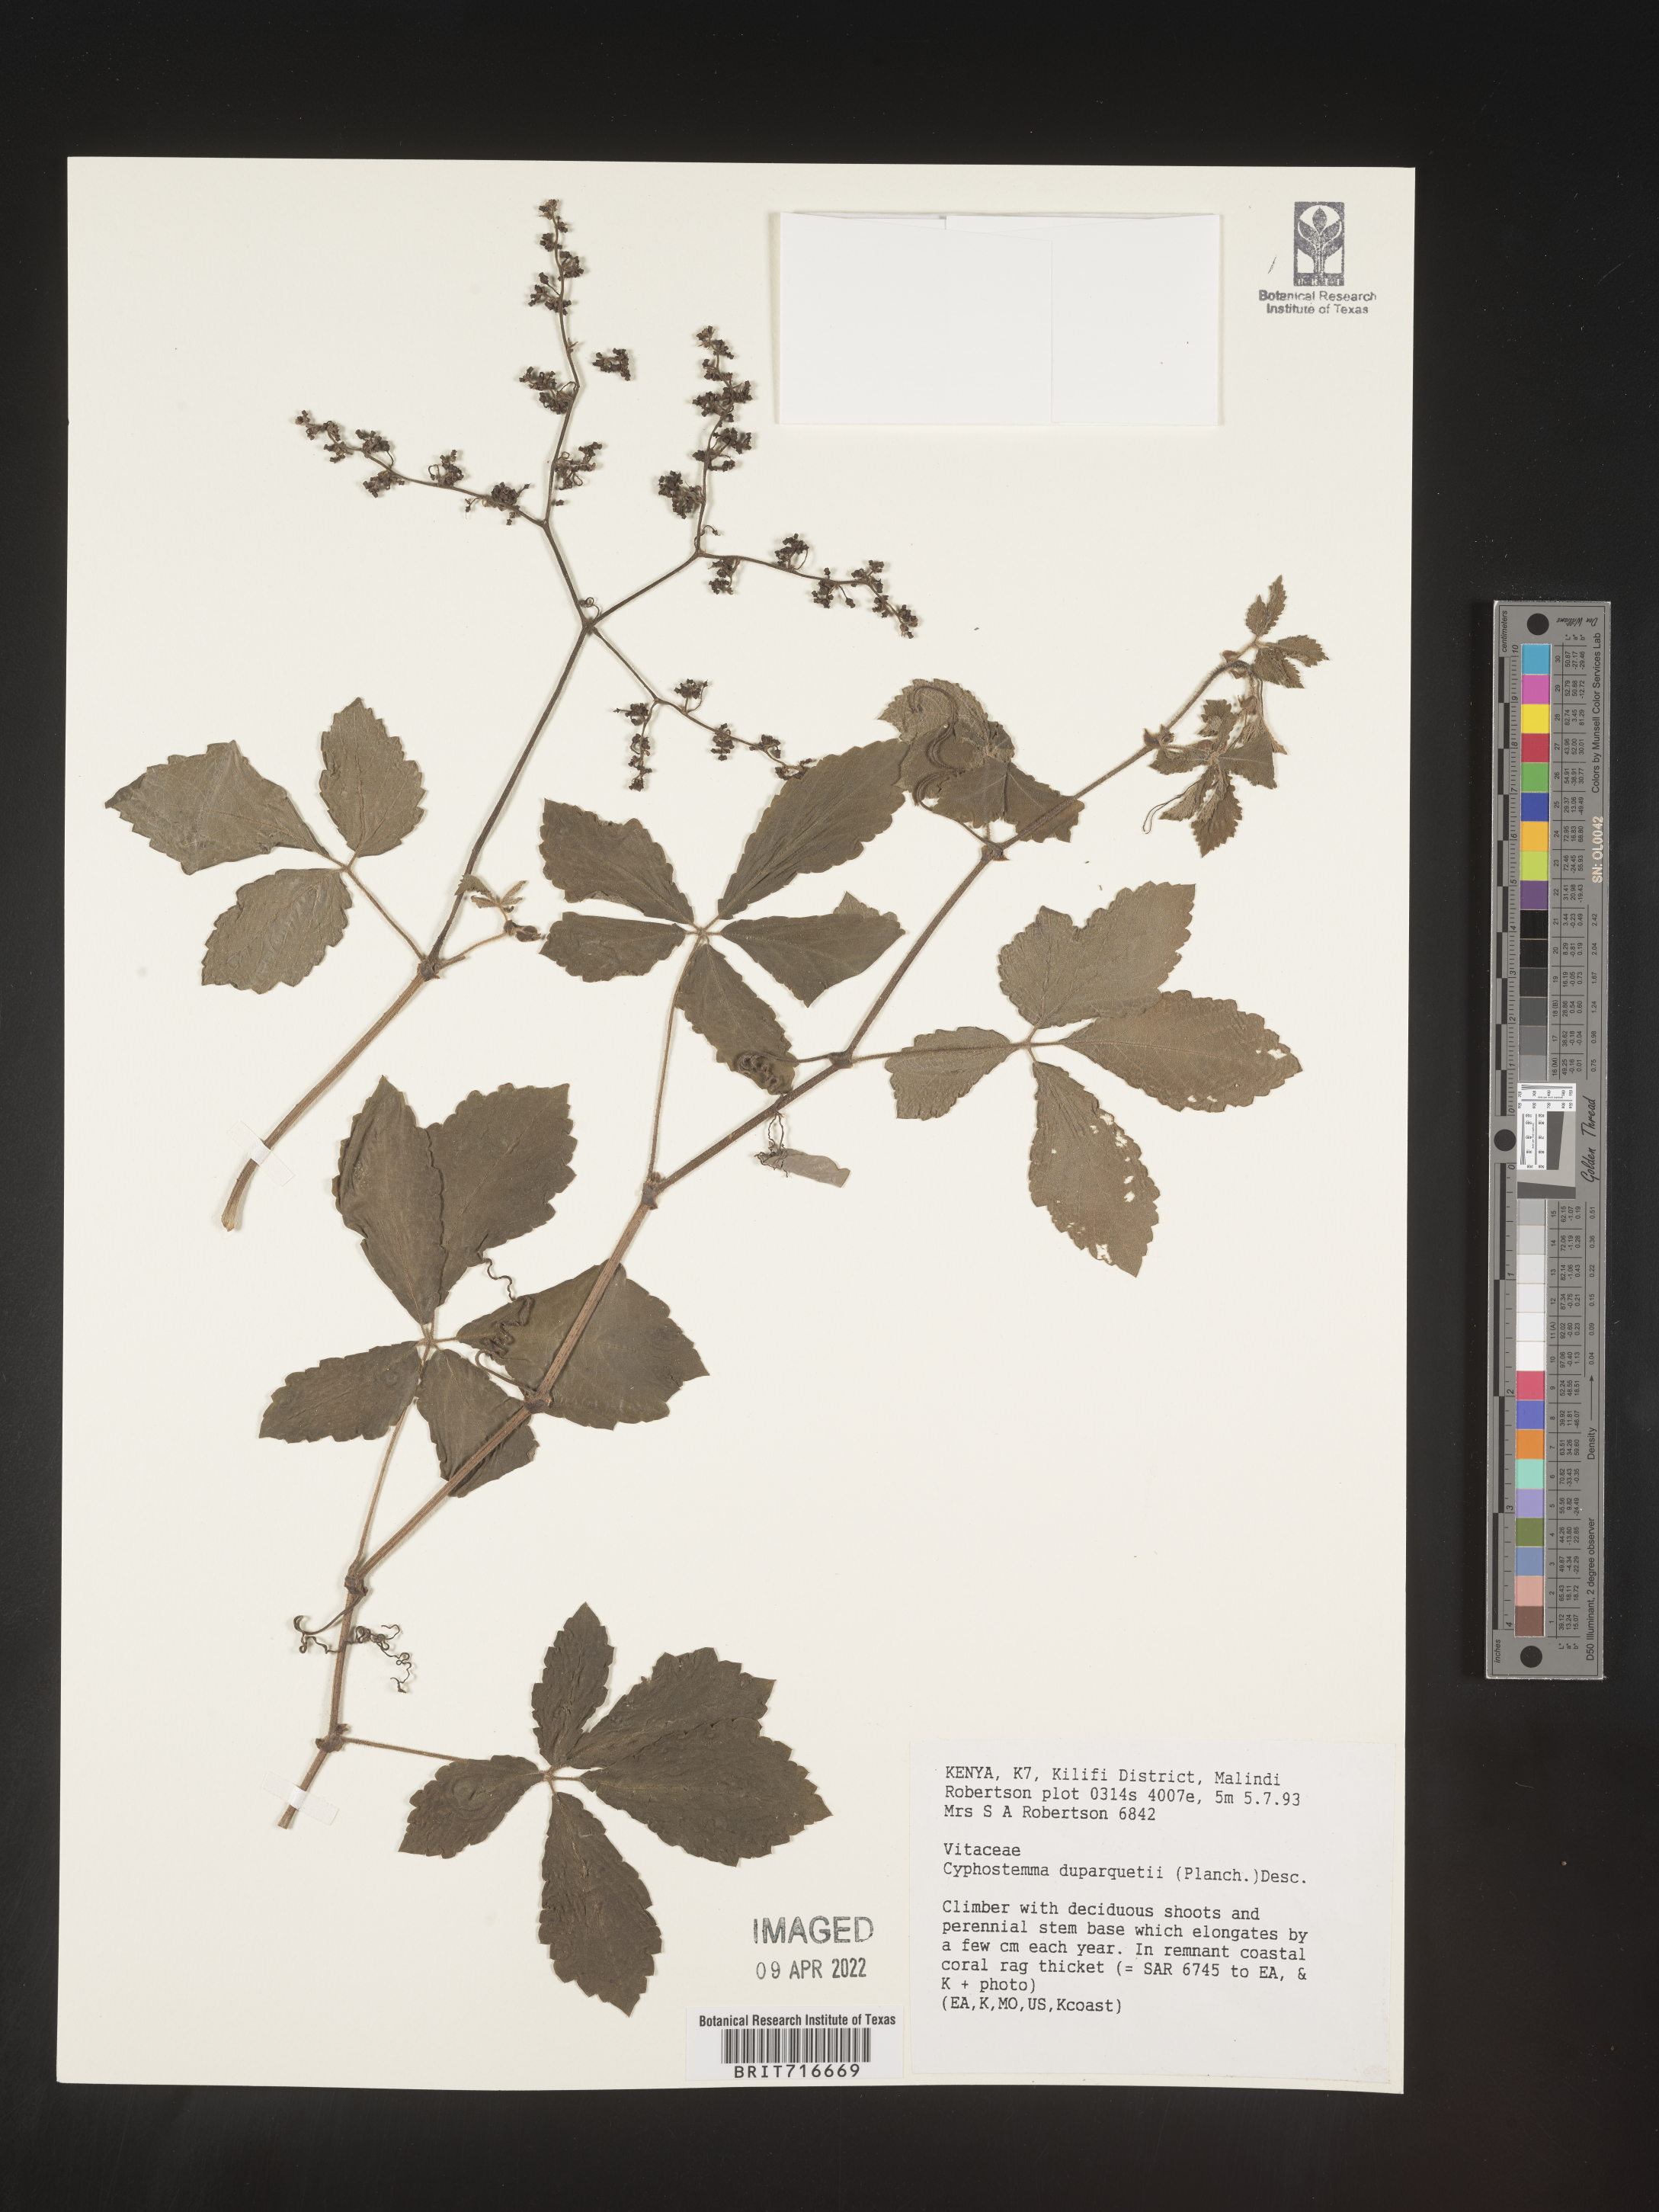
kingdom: Plantae
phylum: Tracheophyta
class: Magnoliopsida
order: Vitales
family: Vitaceae
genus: Cyphostemma
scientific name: Cyphostemma
